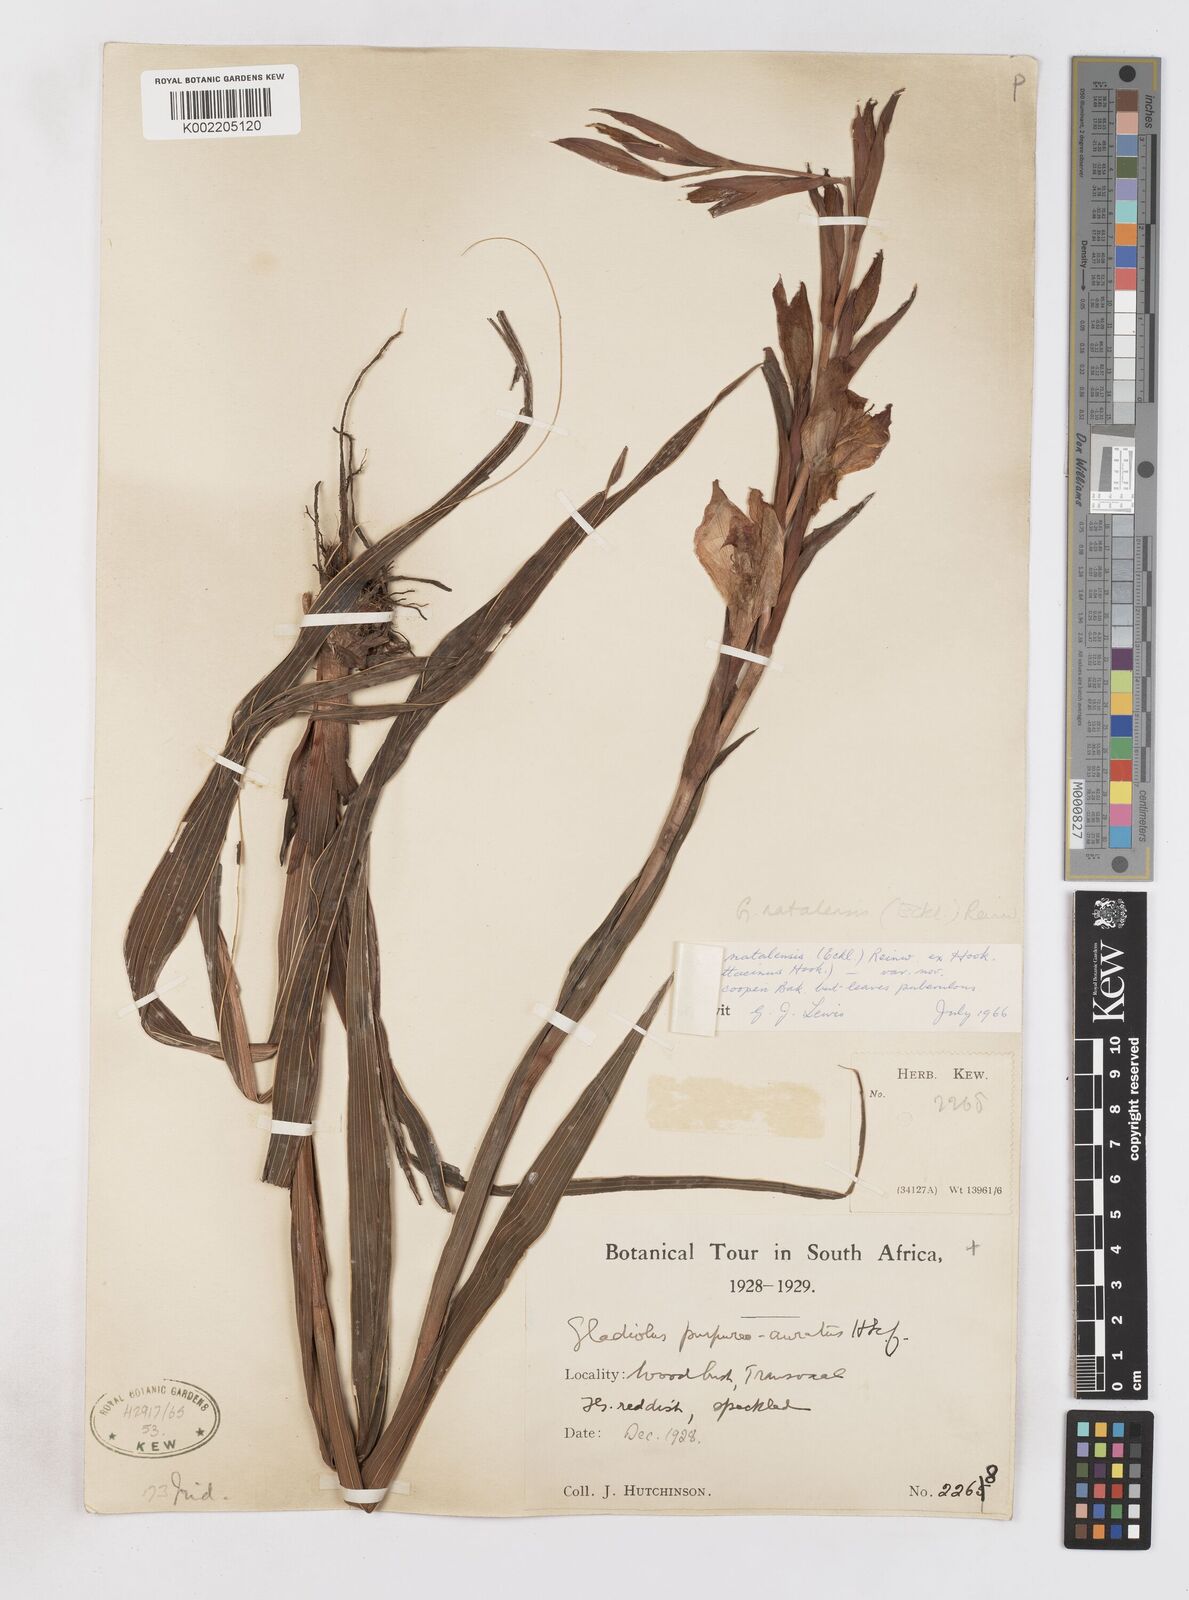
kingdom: Plantae
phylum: Tracheophyta
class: Liliopsida
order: Asparagales
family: Iridaceae
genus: Gladiolus
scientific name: Gladiolus dalenii
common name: Cornflag
